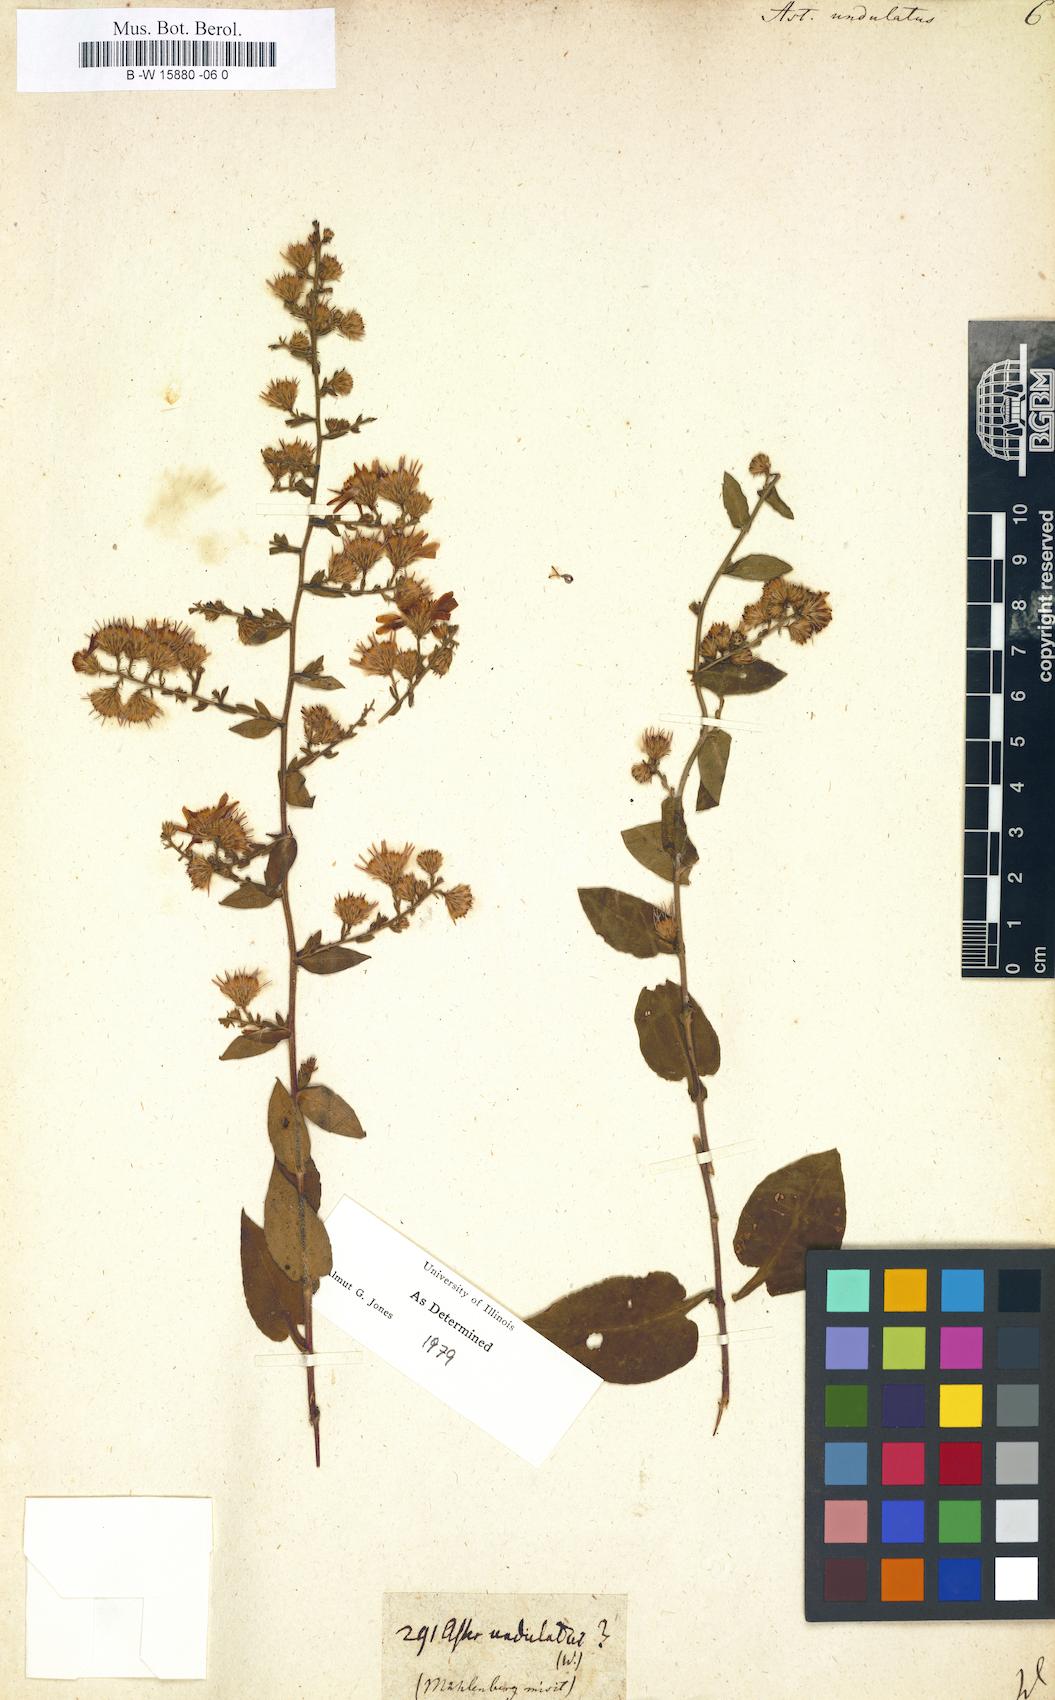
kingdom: Plantae
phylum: Tracheophyta
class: Magnoliopsida
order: Asterales
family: Asteraceae
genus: Symphyotrichum
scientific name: Symphyotrichum undulatum
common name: Clasping heart-leaf aster
